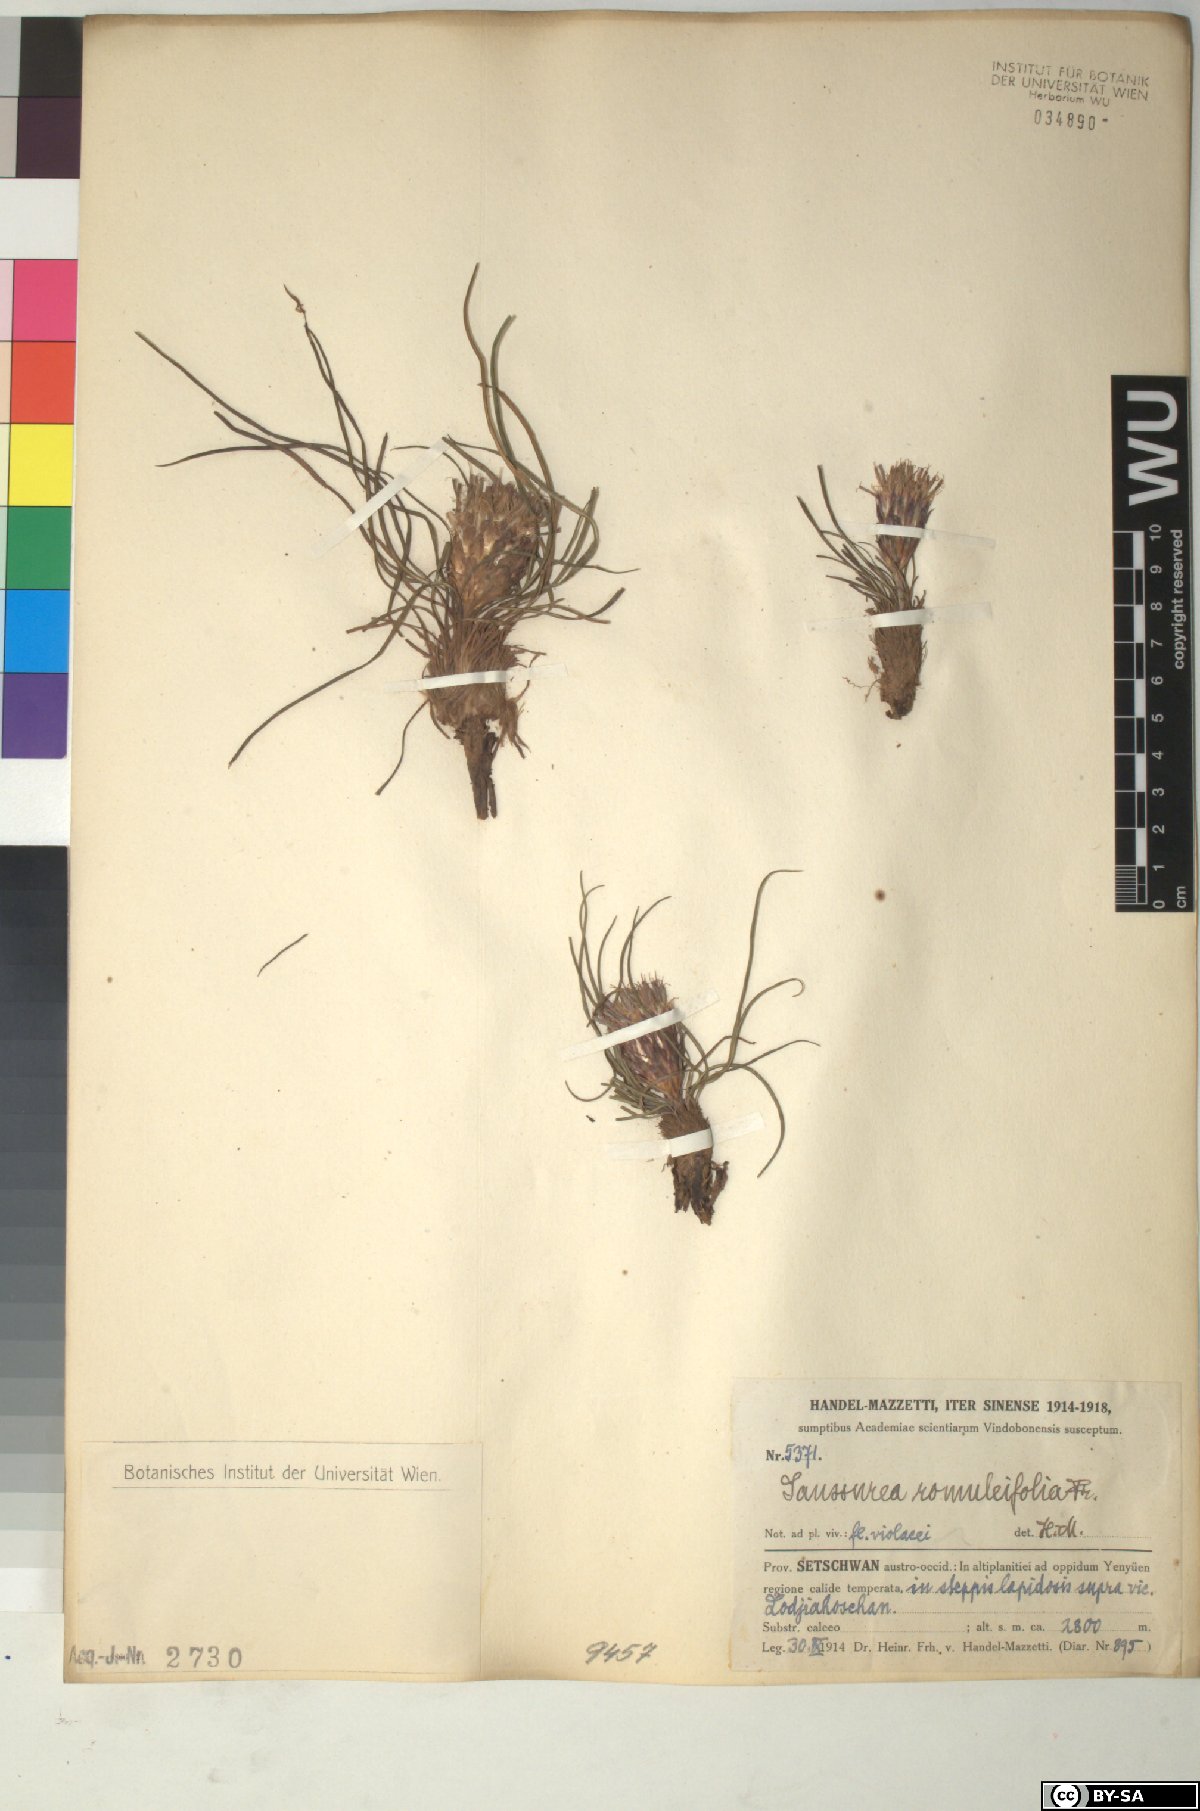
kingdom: Plantae
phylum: Tracheophyta
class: Magnoliopsida
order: Asterales
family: Asteraceae
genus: Saussurea
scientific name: Saussurea romuleifolia
